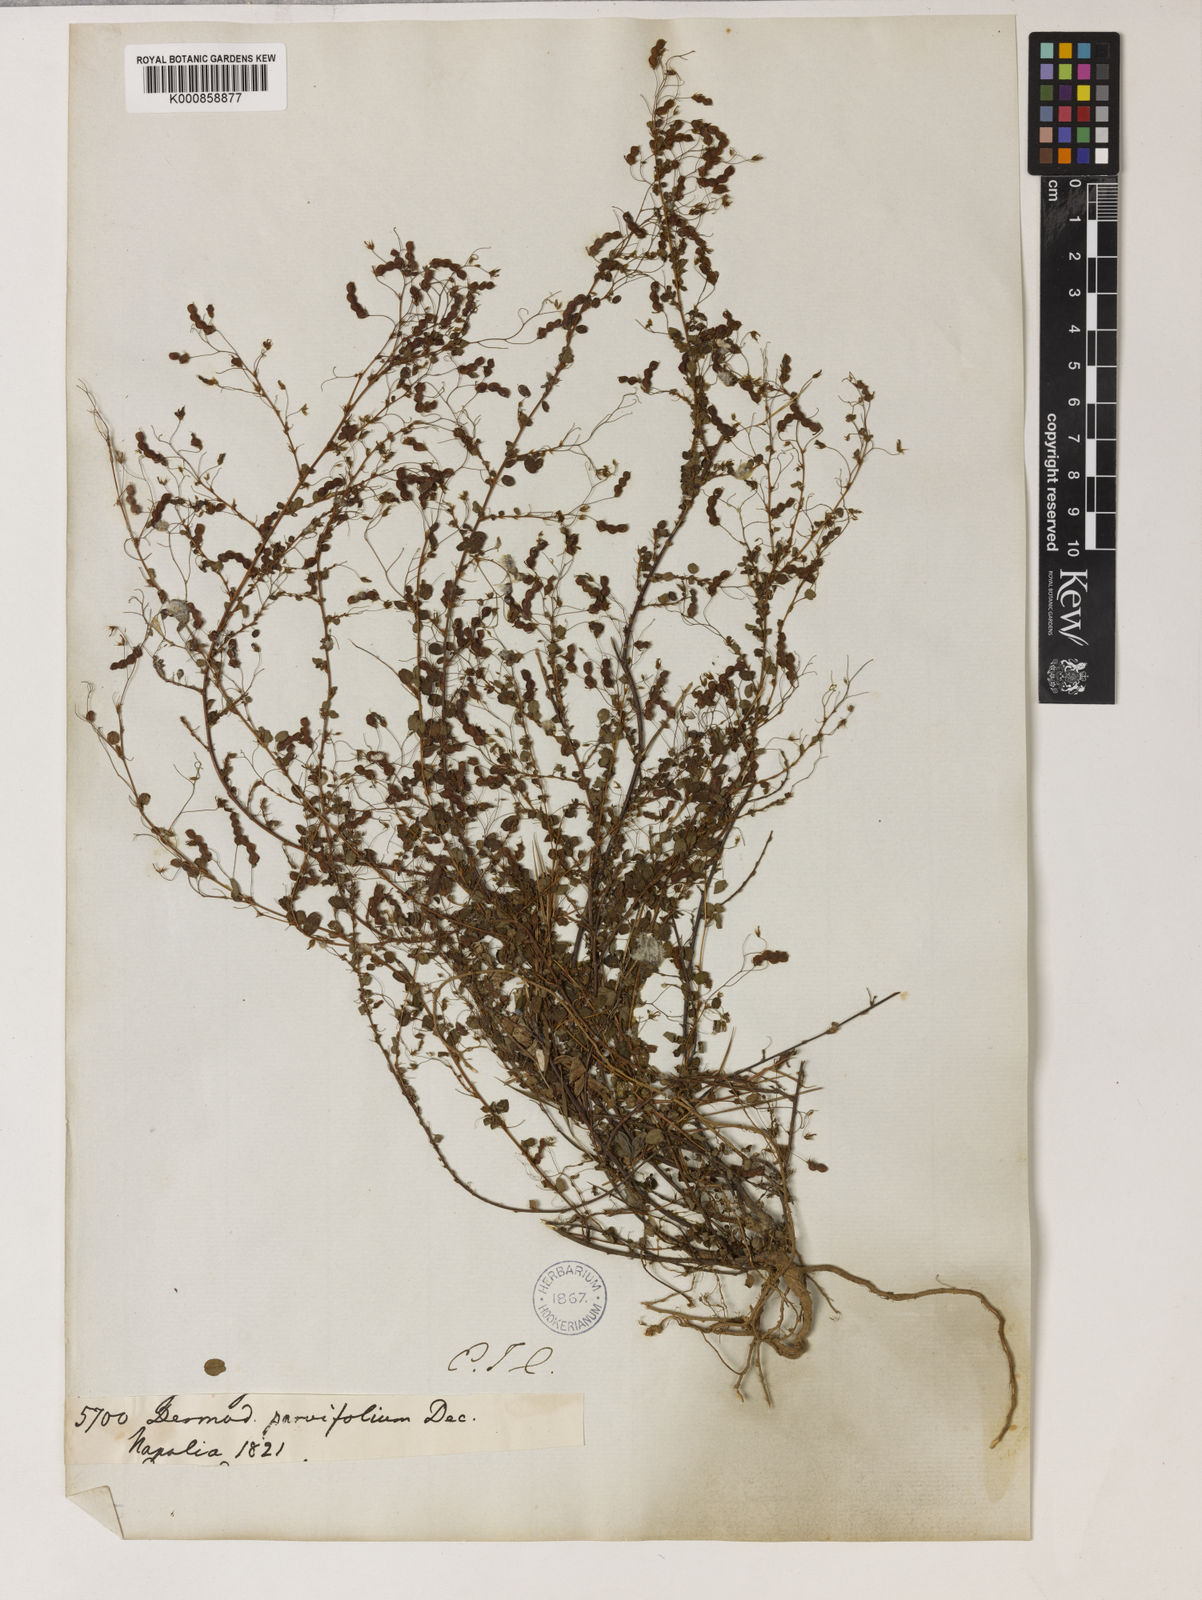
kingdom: Plantae
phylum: Tracheophyta
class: Magnoliopsida
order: Fabales
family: Fabaceae
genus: Leptodesmia
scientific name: Leptodesmia microphylla
